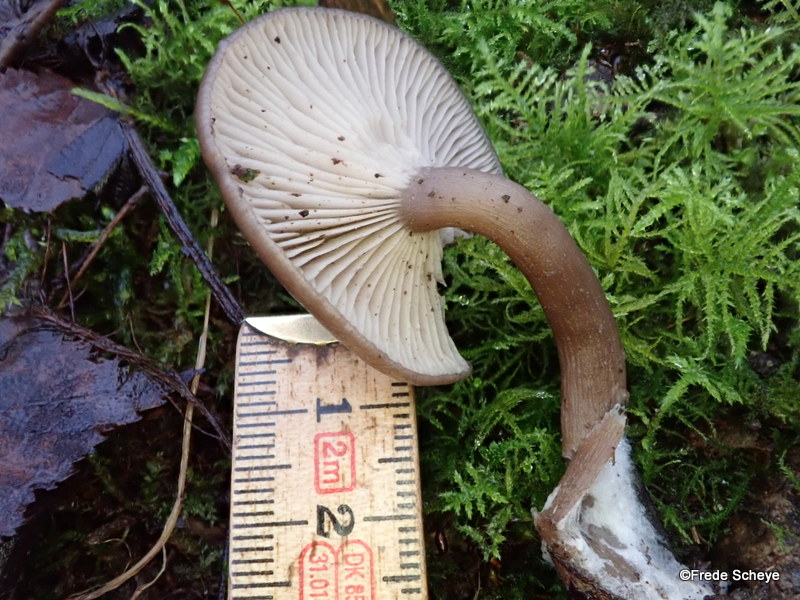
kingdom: Fungi
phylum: Basidiomycota
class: Agaricomycetes
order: Agaricales
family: Pseudoclitocybaceae
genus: Pseudoclitocybe
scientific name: Pseudoclitocybe cyathiformis
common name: almindelig bægertragthat
